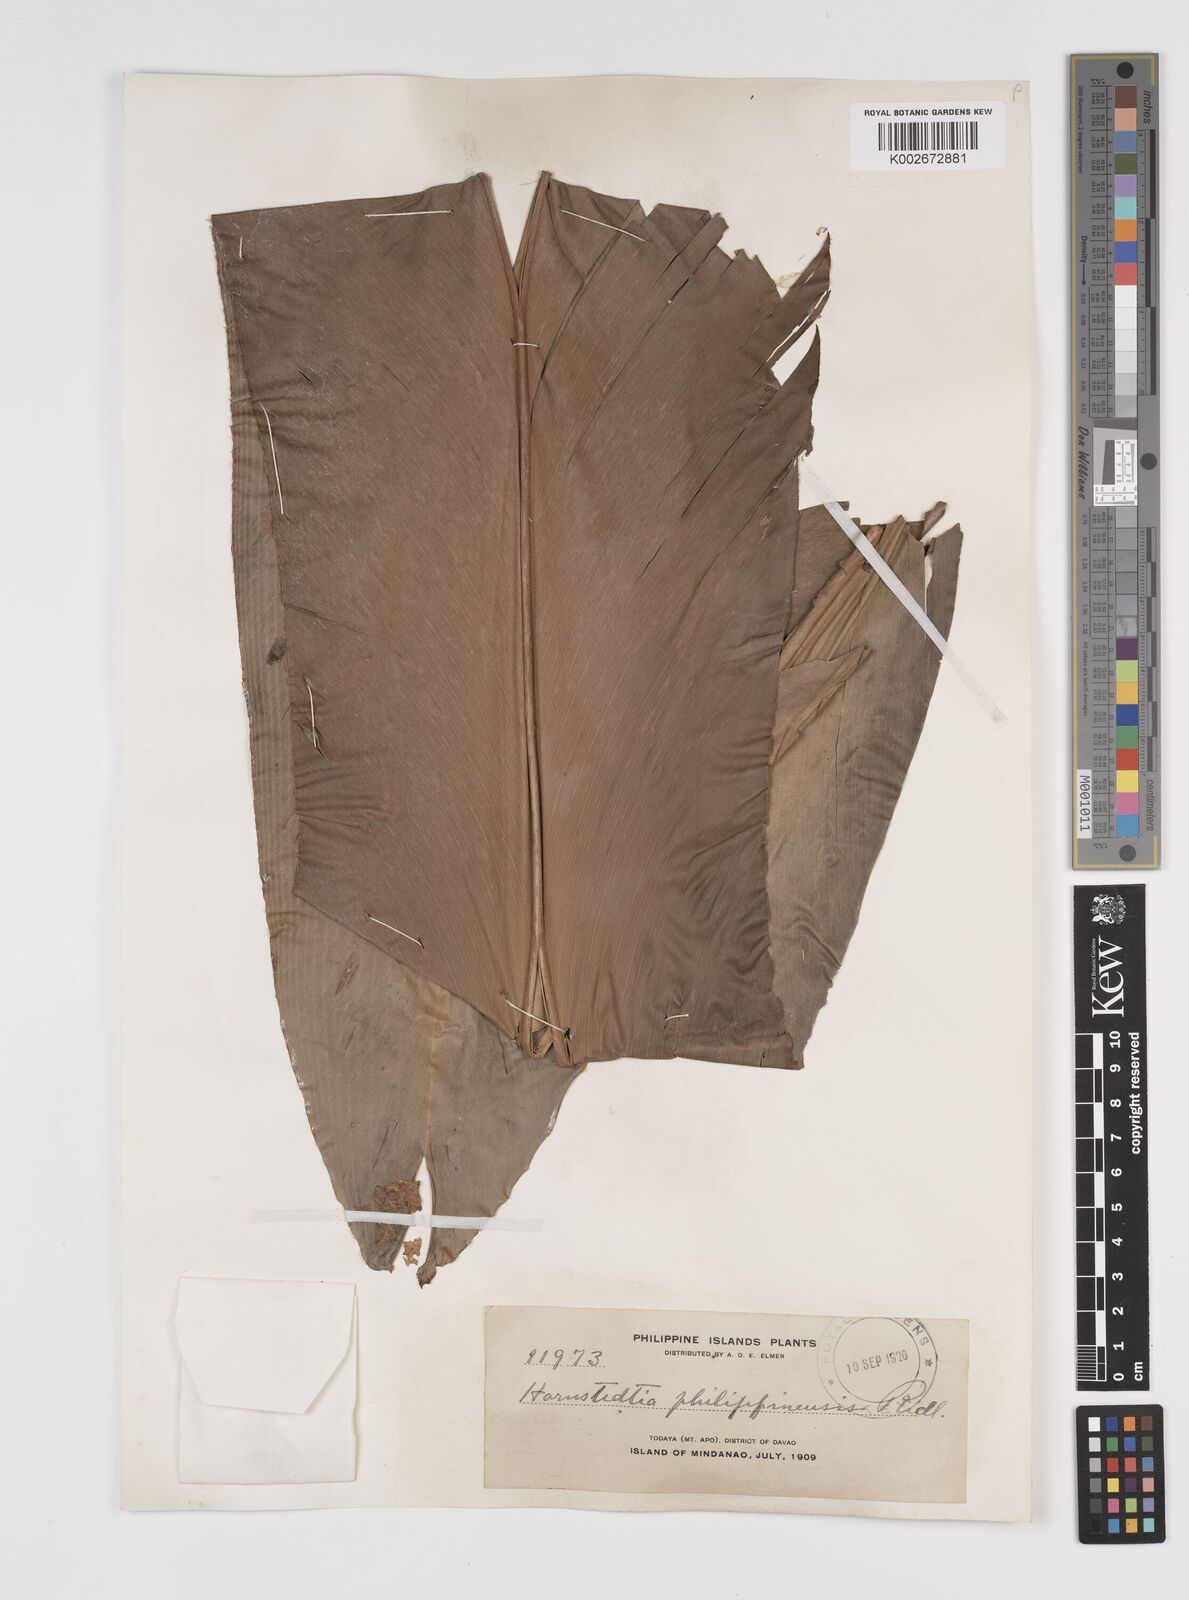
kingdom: Plantae
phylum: Tracheophyta
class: Liliopsida
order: Zingiberales
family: Zingiberaceae
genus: Etlingera
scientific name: Etlingera philippinensis
